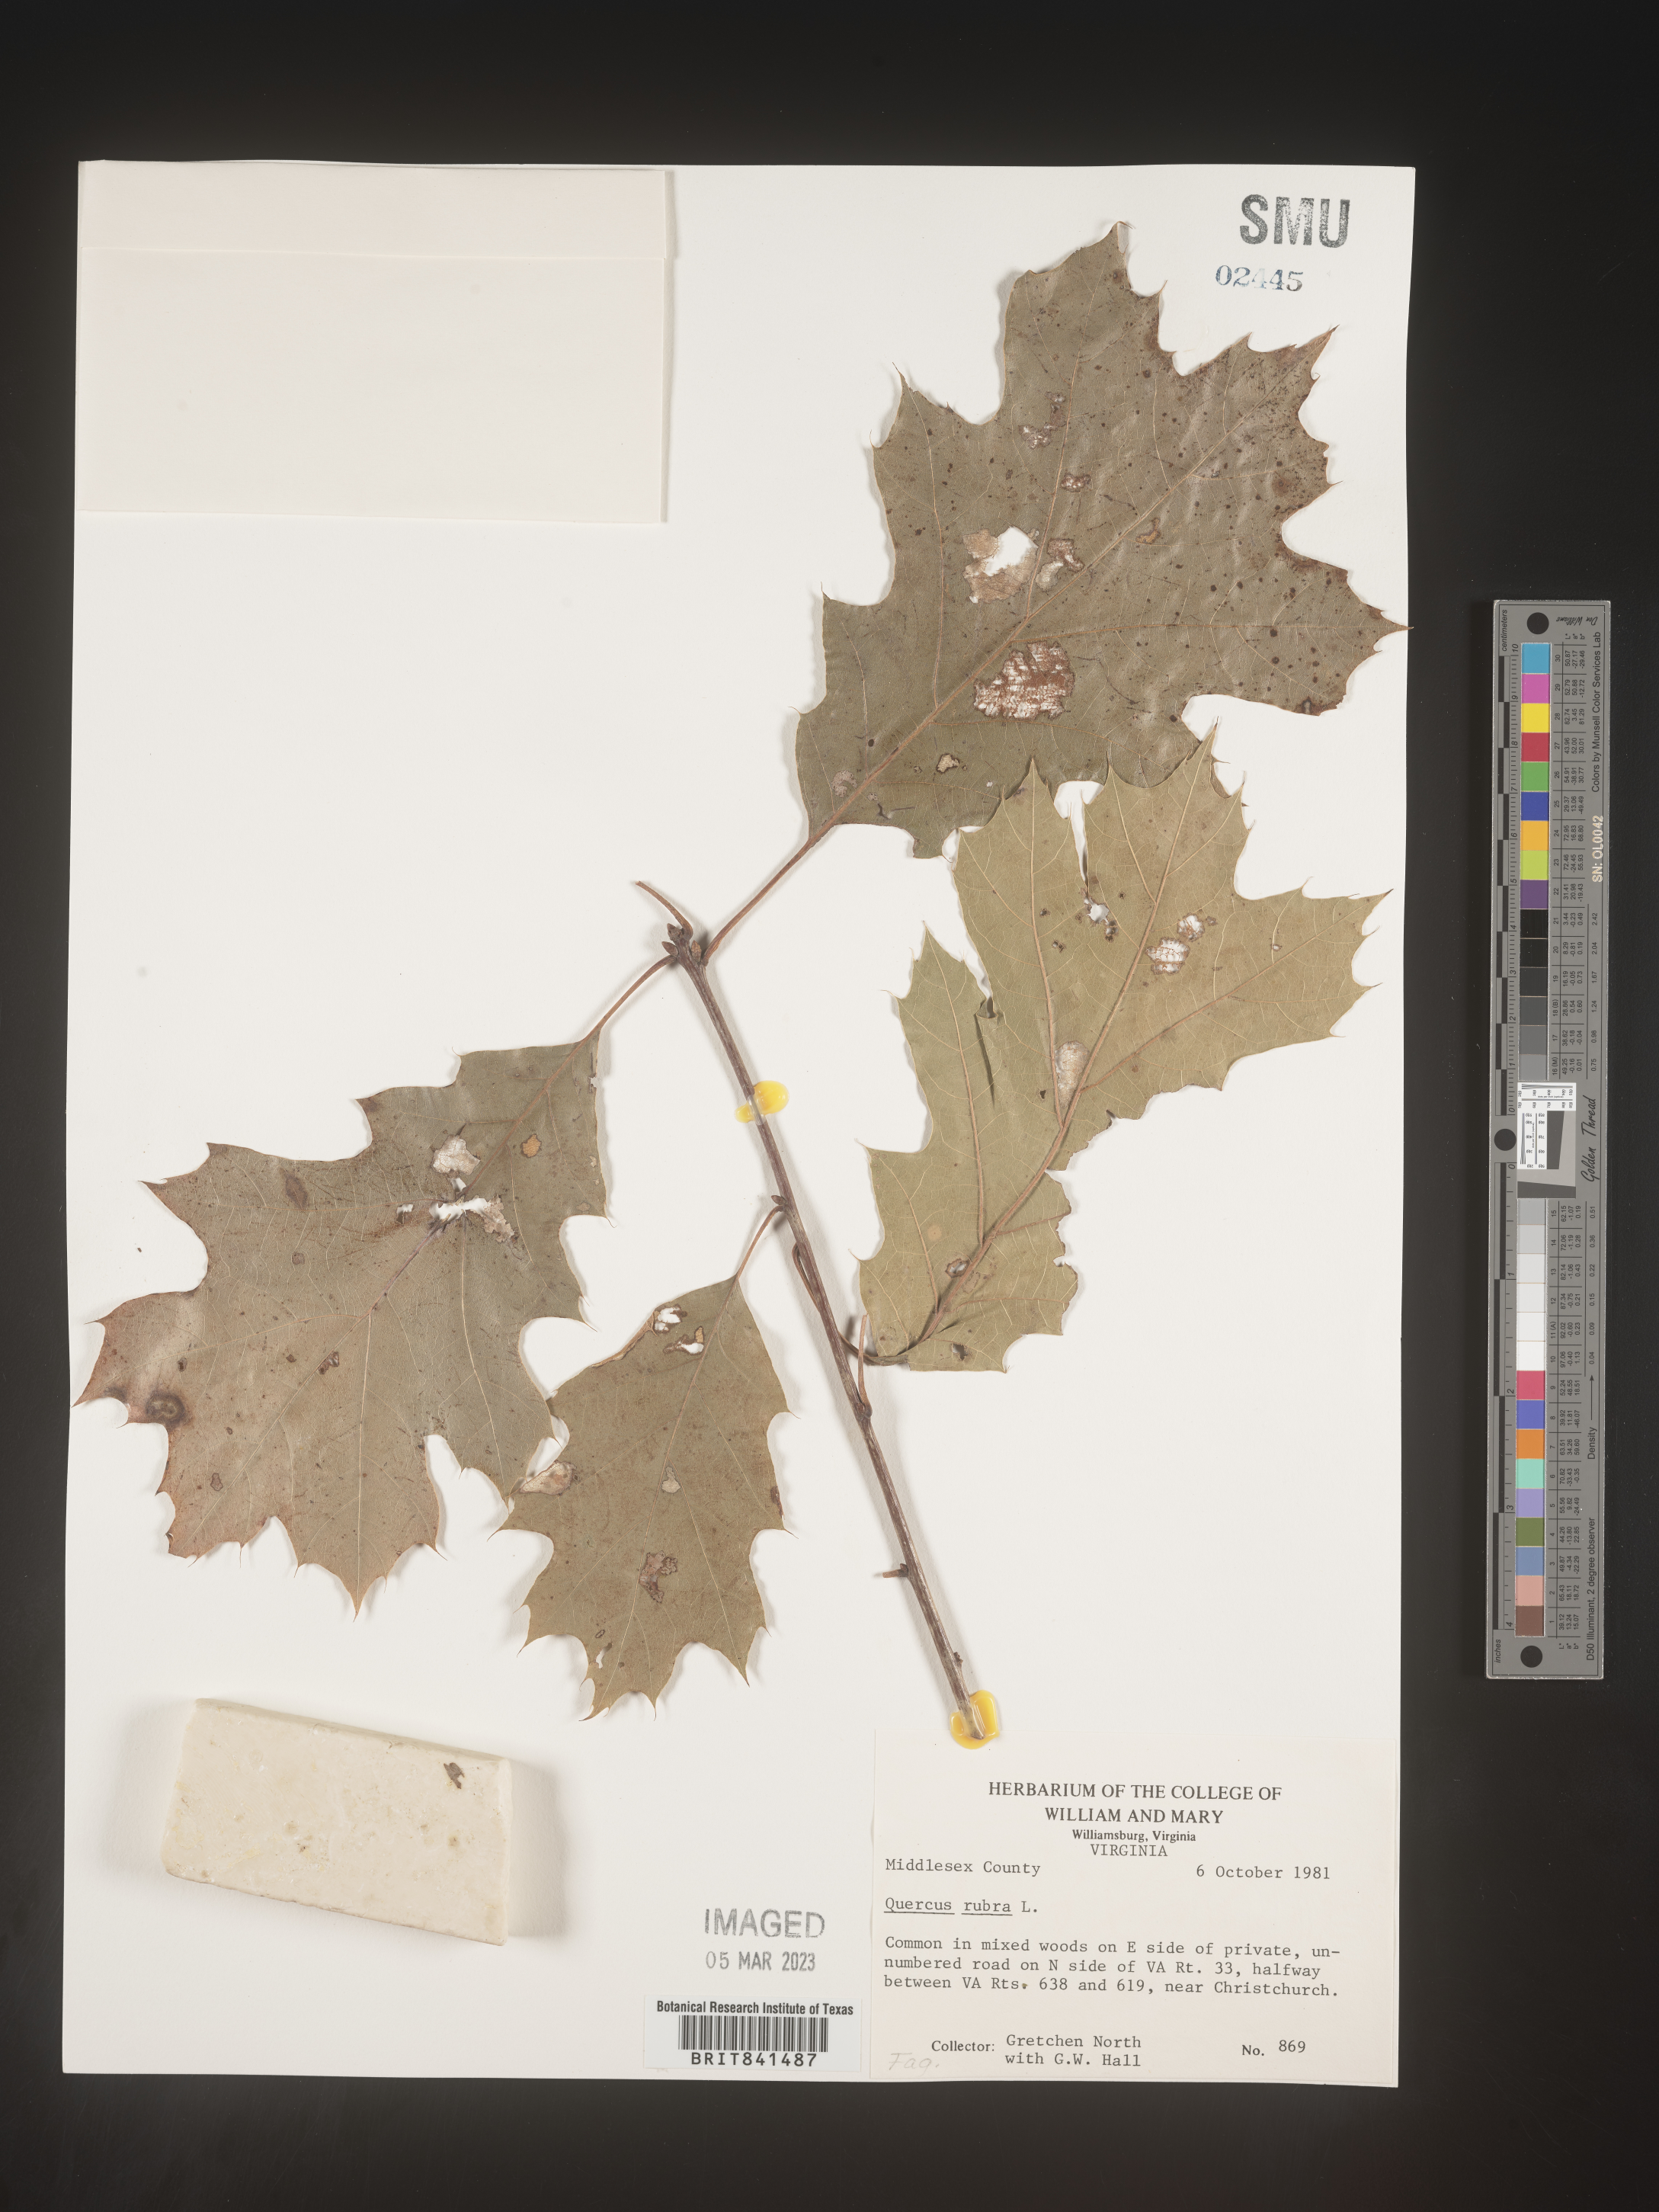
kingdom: Plantae
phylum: Tracheophyta
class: Magnoliopsida
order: Fagales
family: Fagaceae
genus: Quercus
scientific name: Quercus rubra
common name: Red oak
